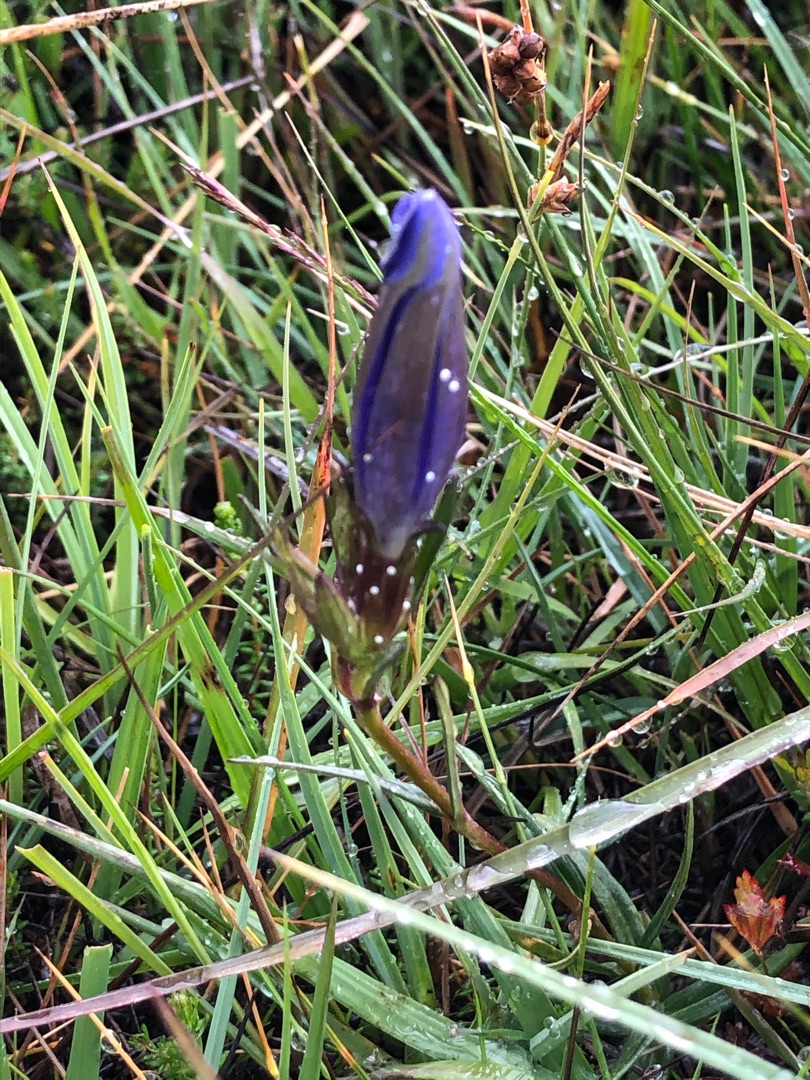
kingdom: Plantae
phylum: Tracheophyta
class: Magnoliopsida
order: Gentianales
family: Gentianaceae
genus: Gentiana
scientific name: Gentiana pneumonanthe
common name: Klokke-ensian
